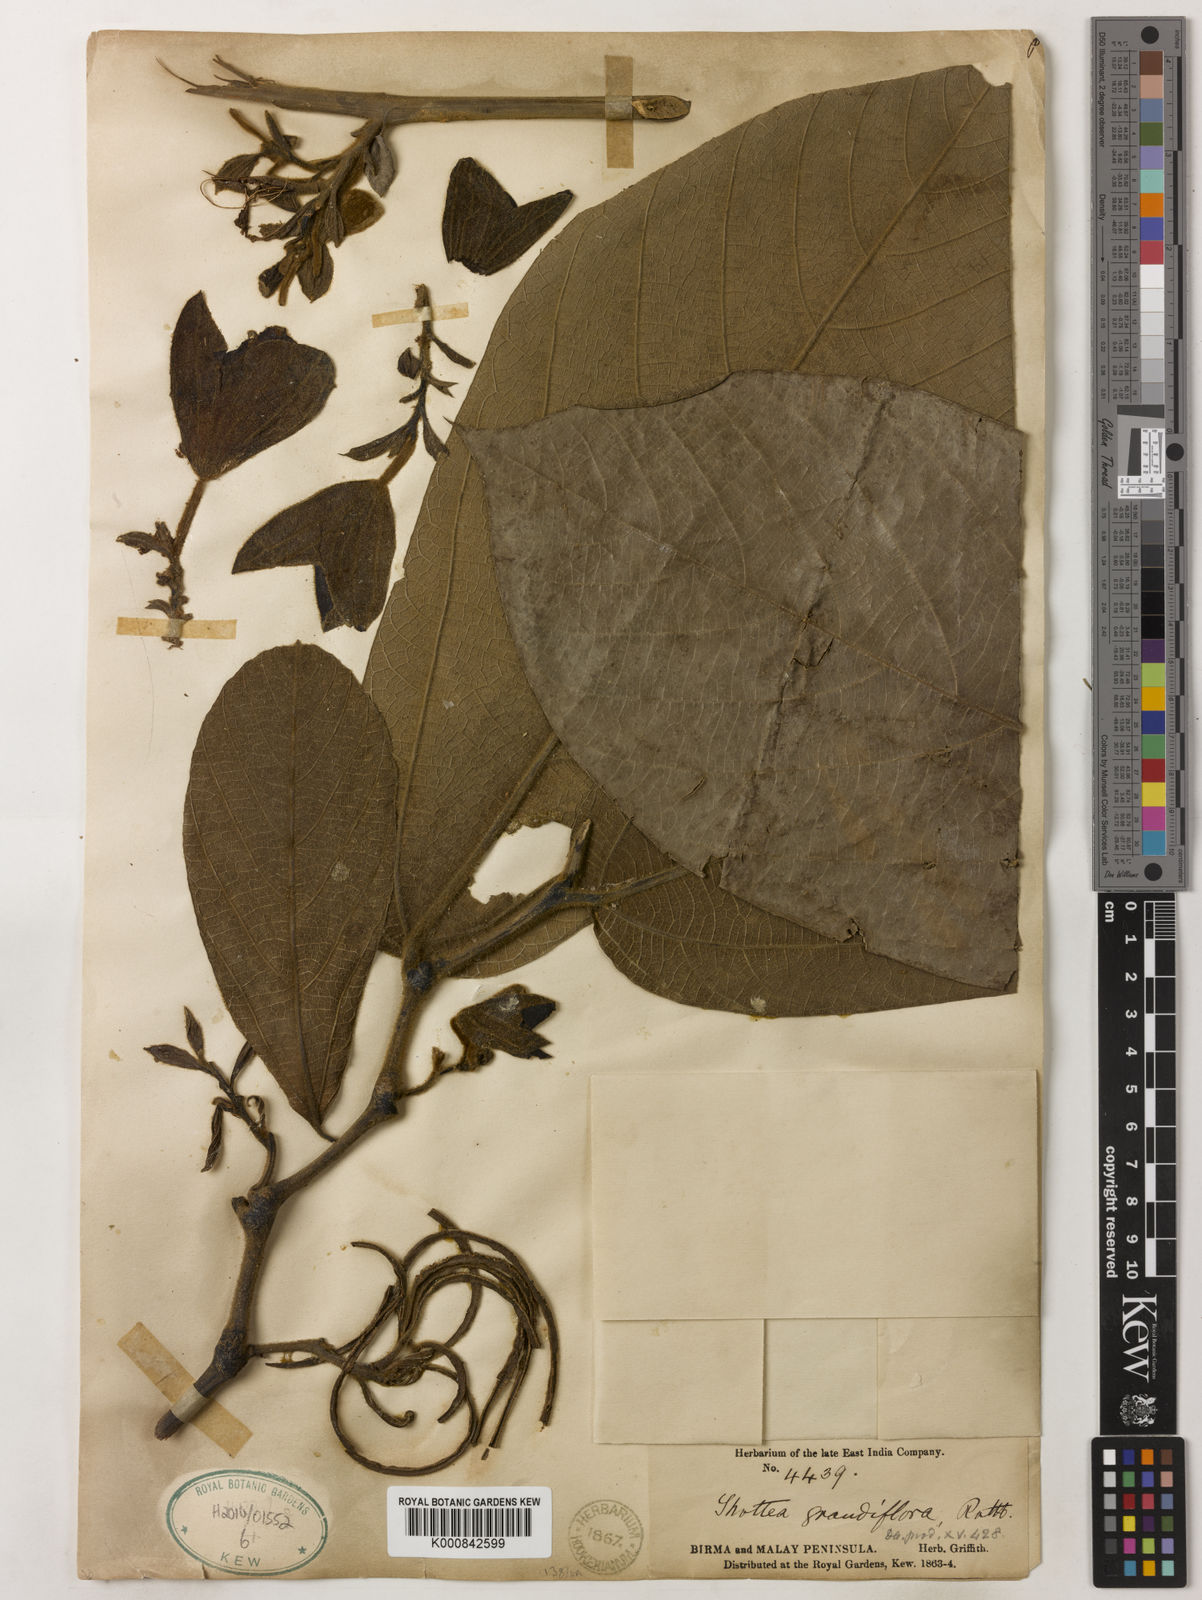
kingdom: Plantae
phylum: Tracheophyta
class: Magnoliopsida
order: Piperales
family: Aristolochiaceae
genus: Thottea
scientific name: Thottea grandiflora
